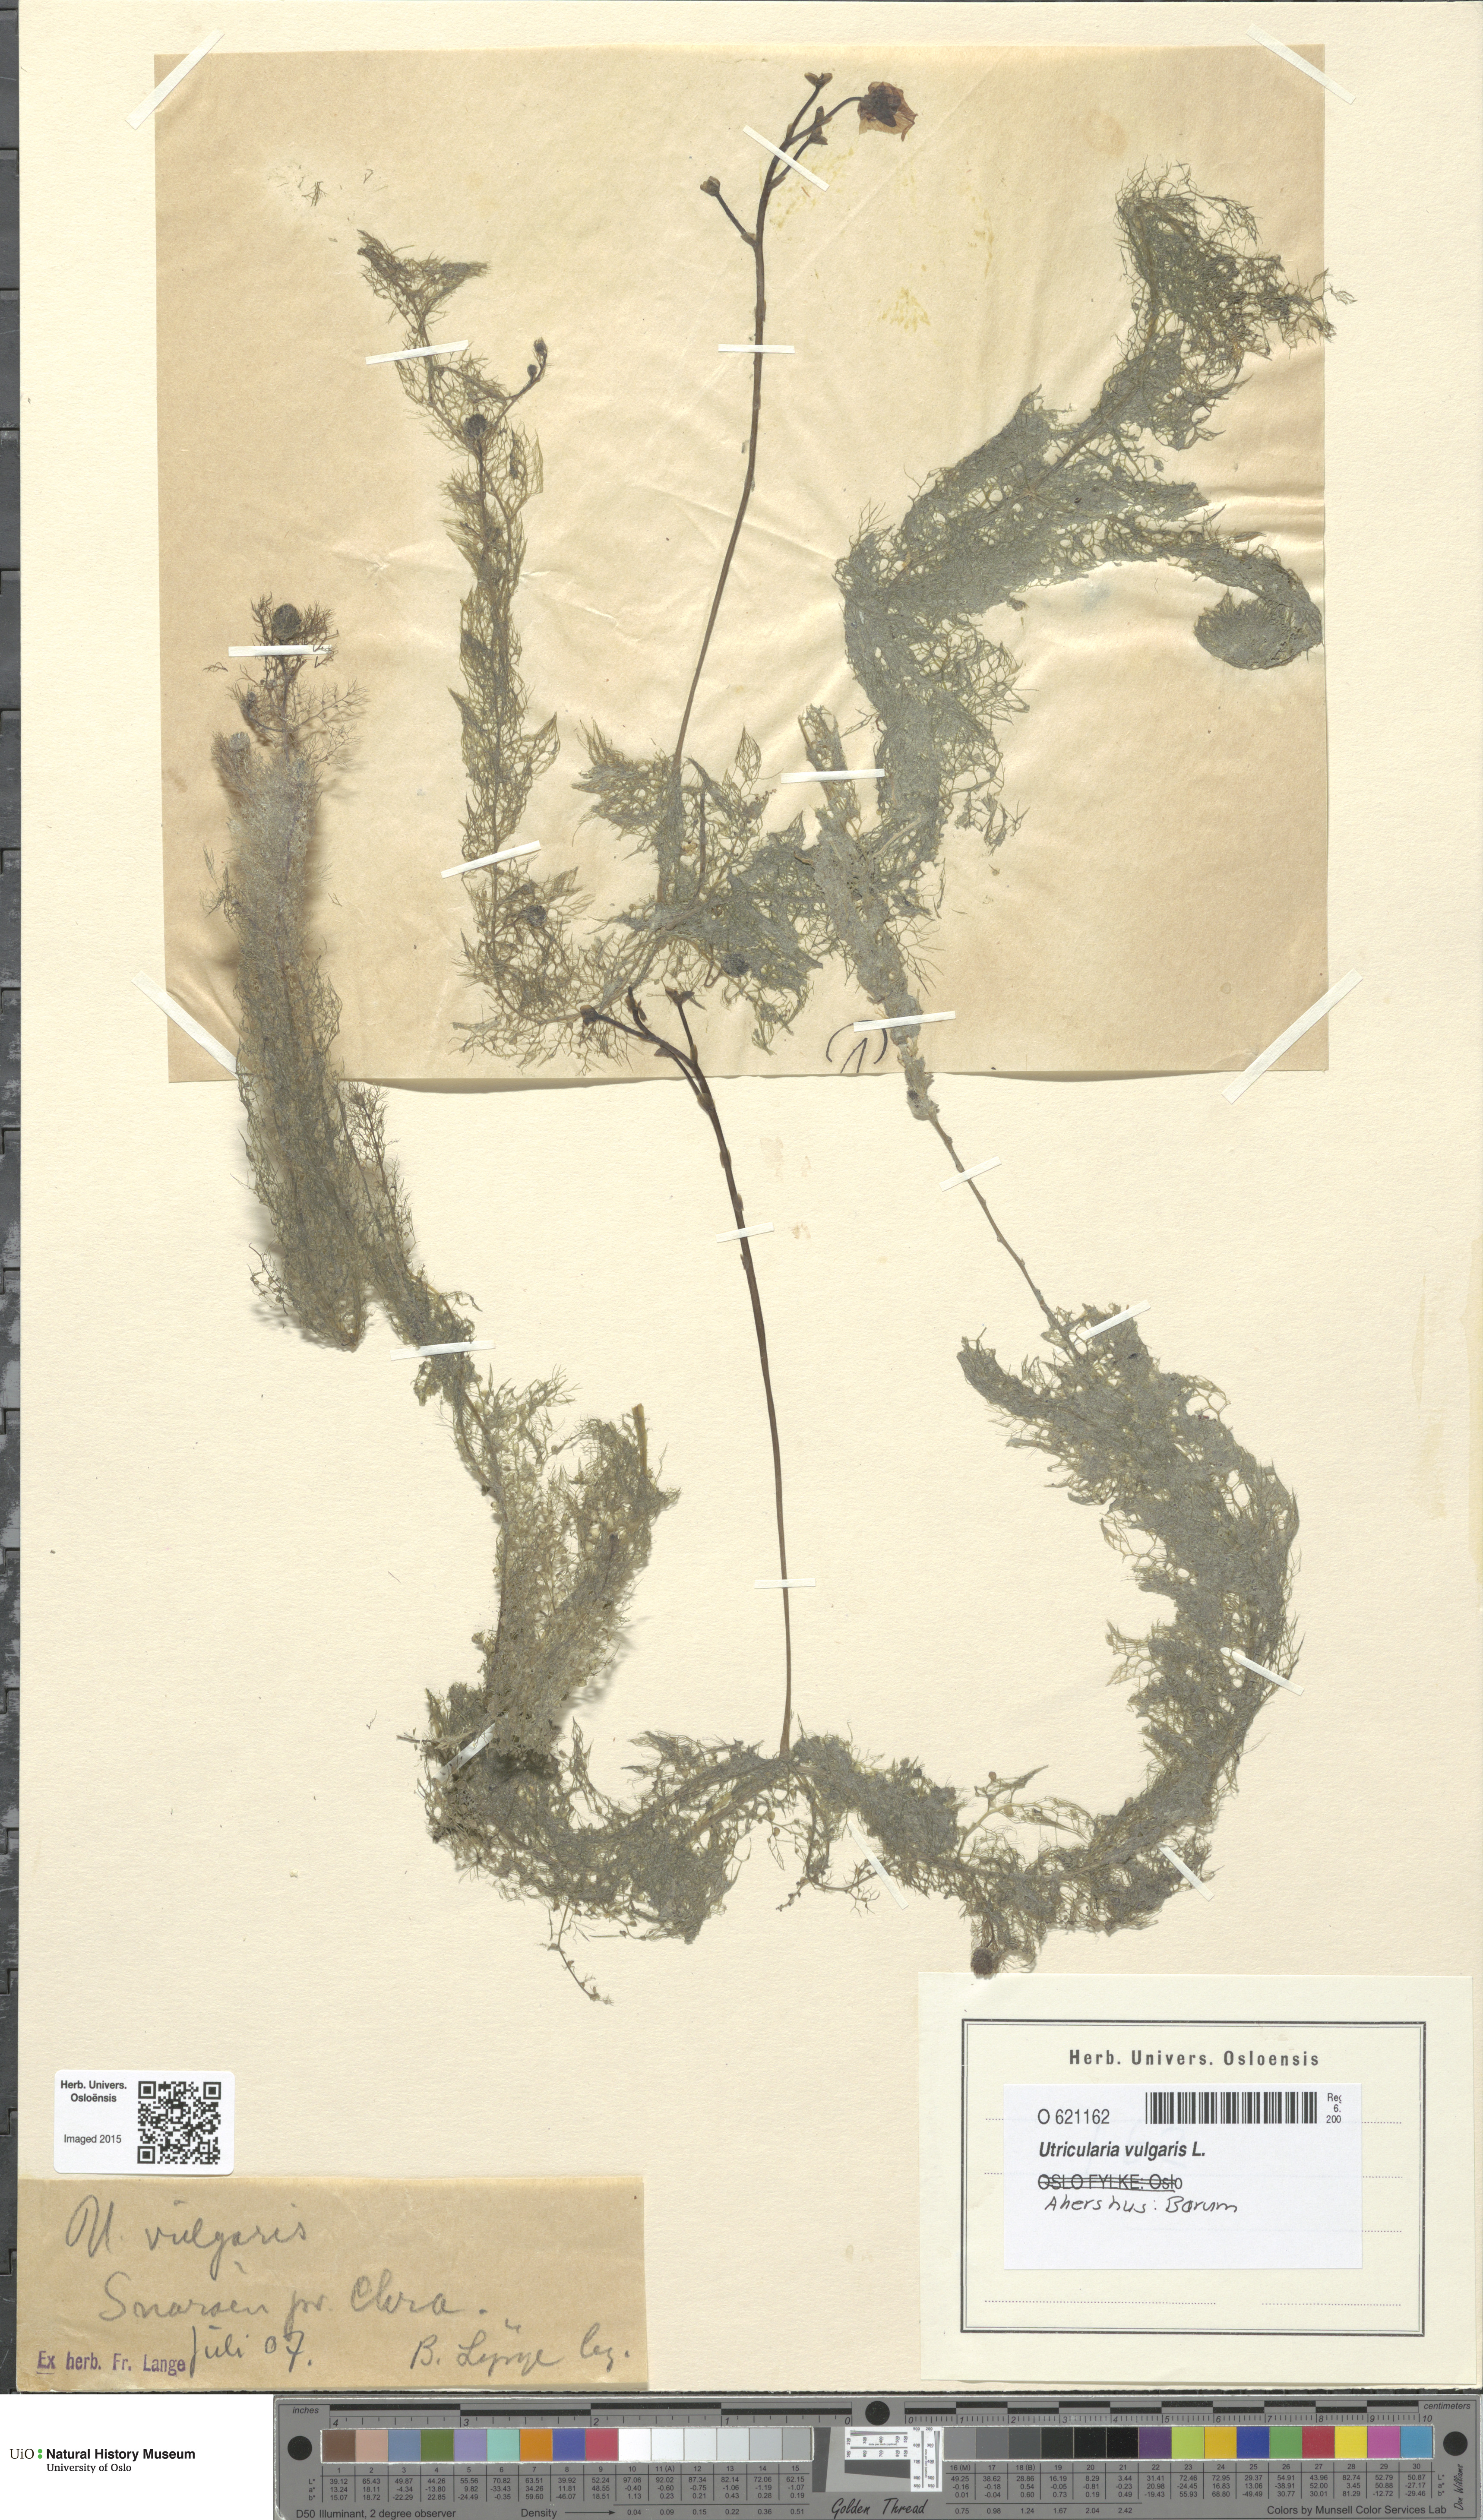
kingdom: Plantae
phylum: Tracheophyta
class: Magnoliopsida
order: Lamiales
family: Lentibulariaceae
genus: Utricularia
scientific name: Utricularia vulgaris
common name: Greater bladderwort
